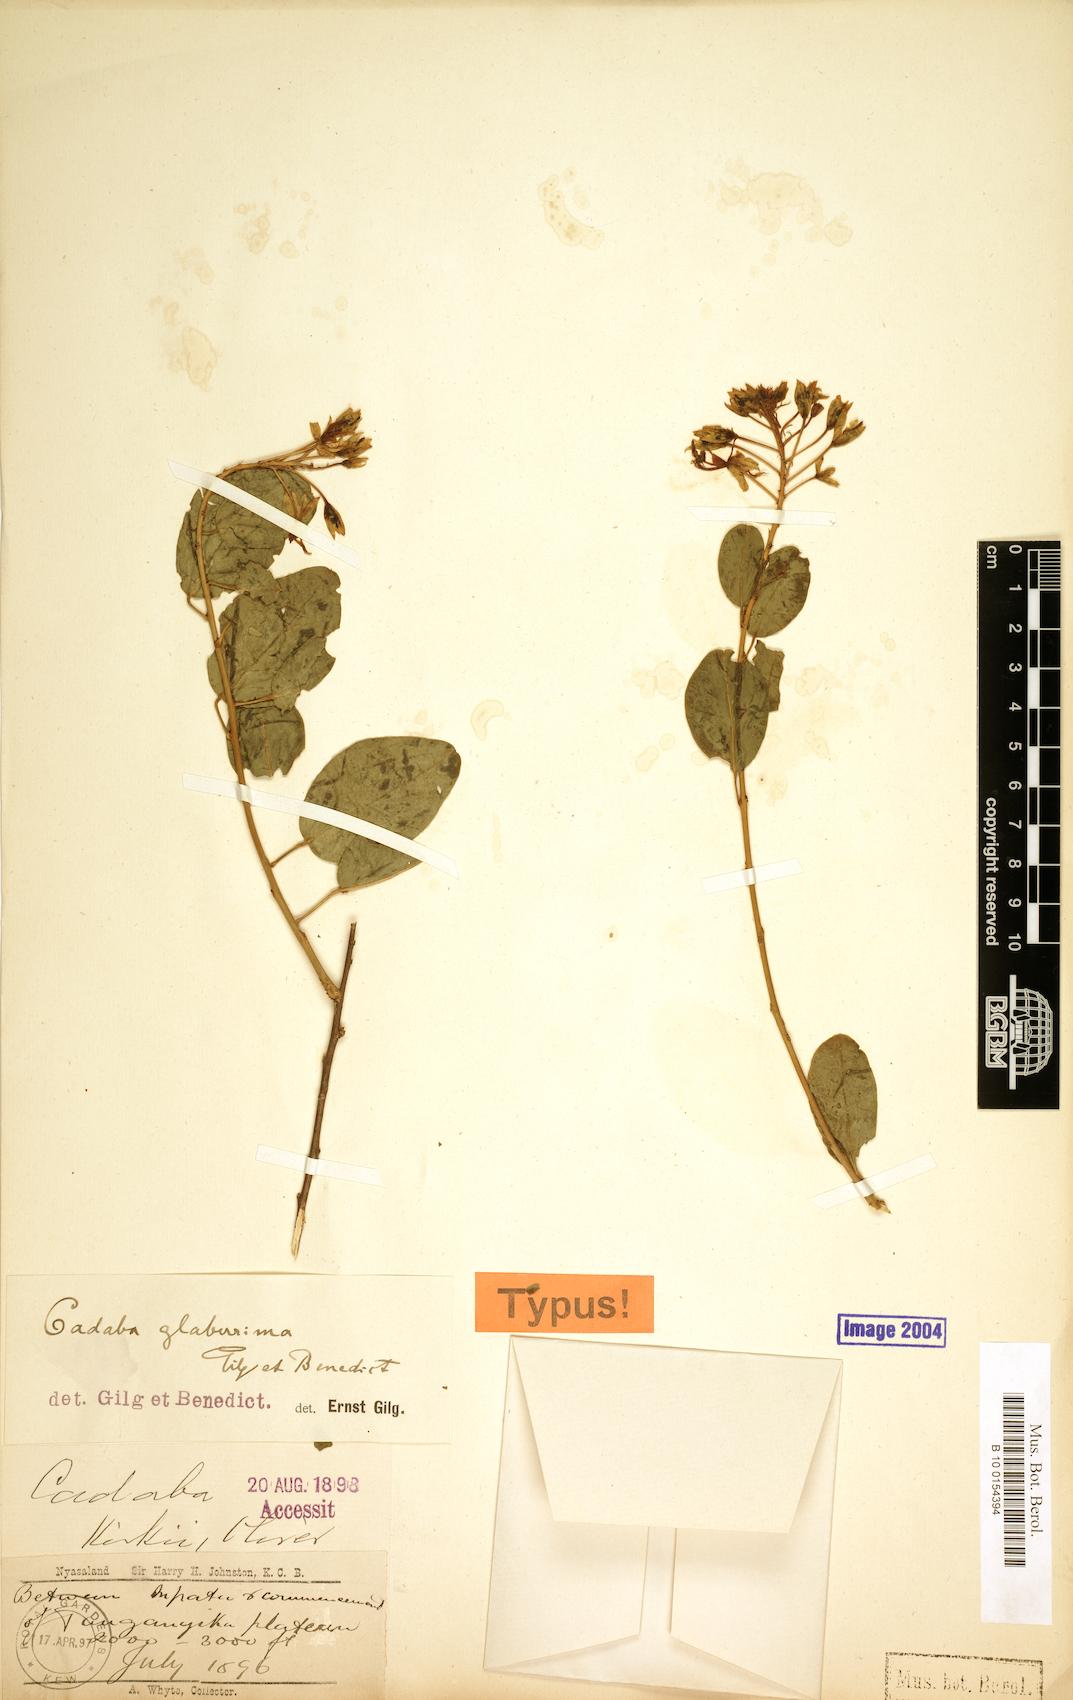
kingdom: Plantae
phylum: Tracheophyta
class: Magnoliopsida
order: Brassicales
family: Capparaceae
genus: Cadaba
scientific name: Cadaba glaberrima
